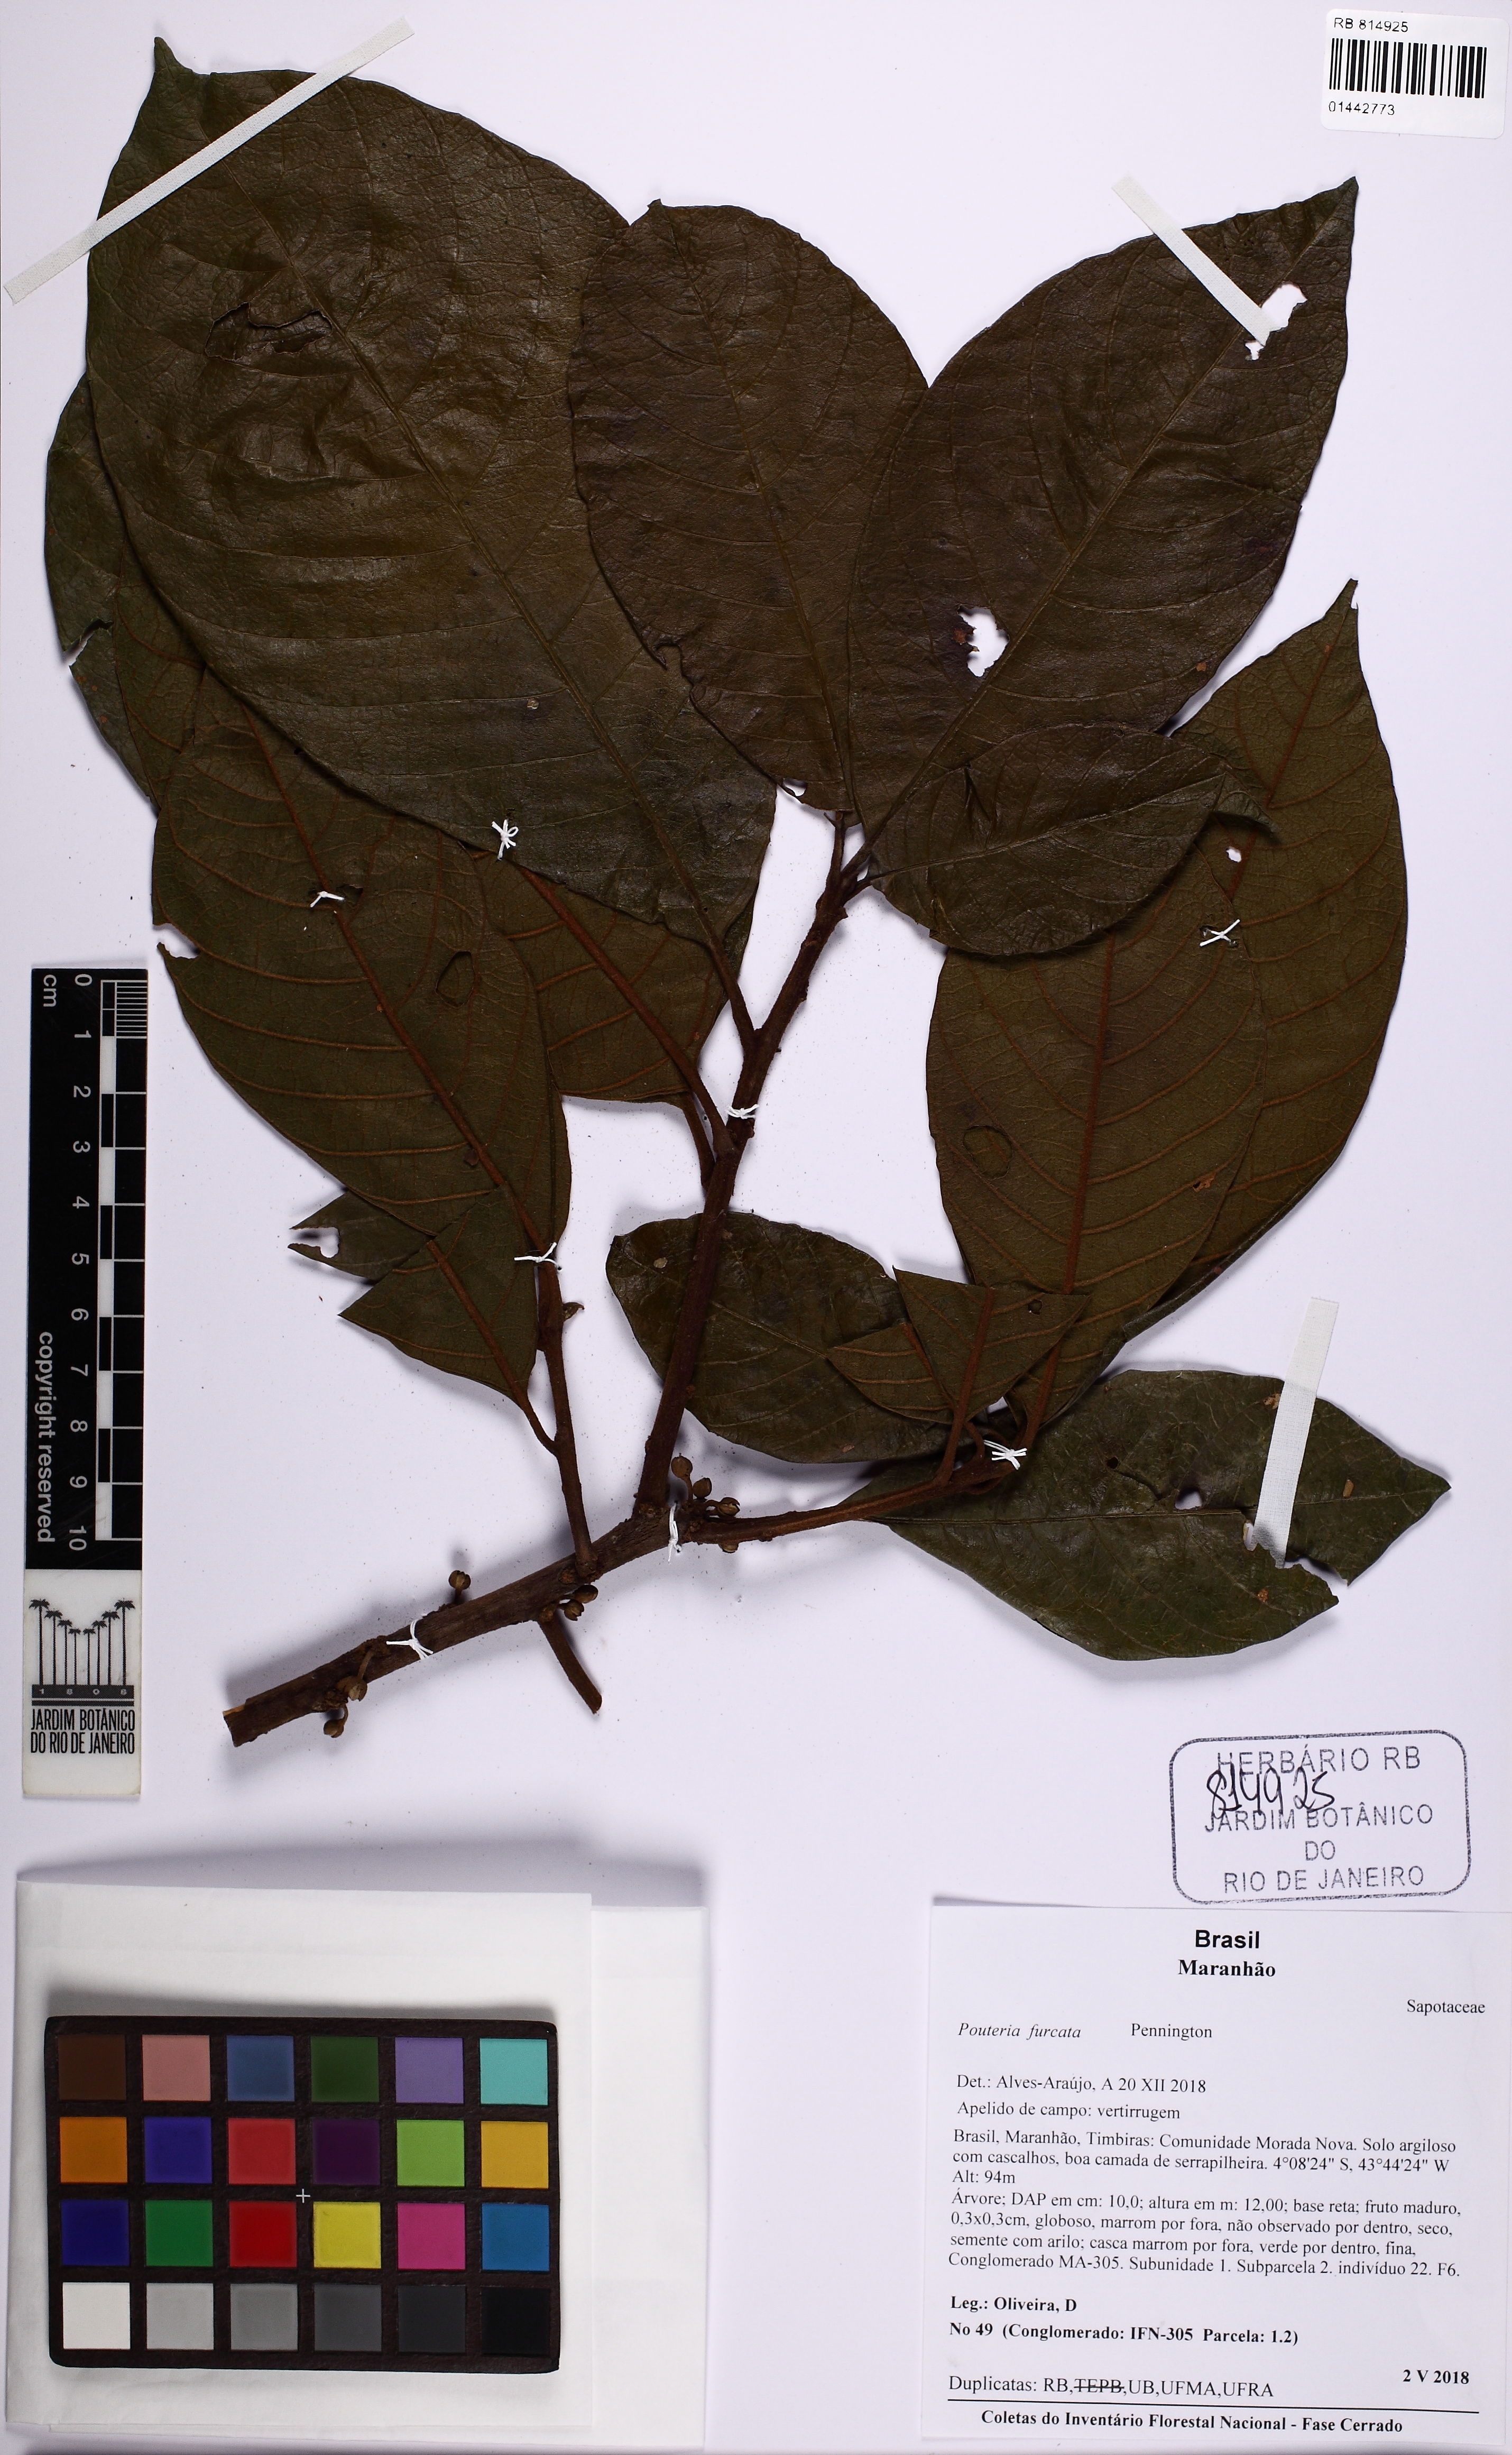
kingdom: Plantae
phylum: Tracheophyta
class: Magnoliopsida
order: Ericales
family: Sapotaceae
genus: Pouteria
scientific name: Pouteria furcata
